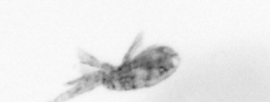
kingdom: Animalia
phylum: Arthropoda
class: Copepoda
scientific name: Copepoda
